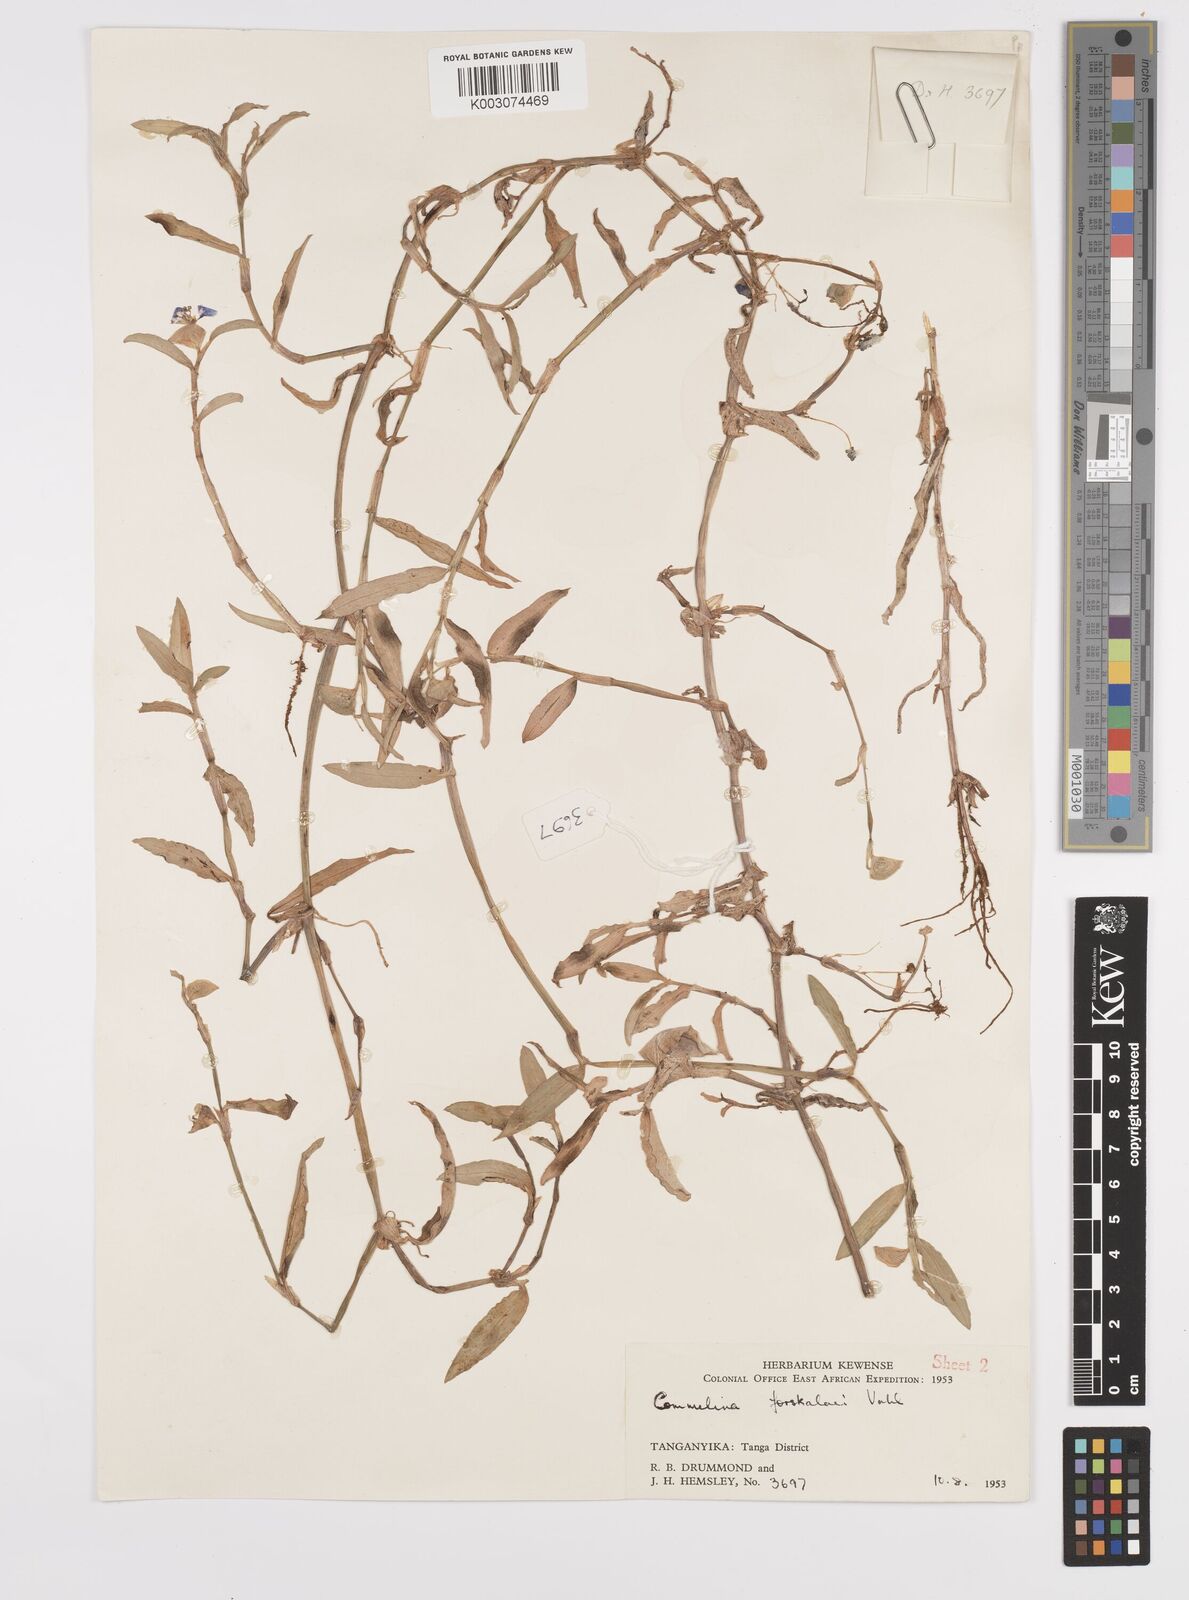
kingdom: Plantae
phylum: Tracheophyta
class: Liliopsida
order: Commelinales
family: Commelinaceae
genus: Commelina
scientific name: Commelina forskaolii
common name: Rat's ear
